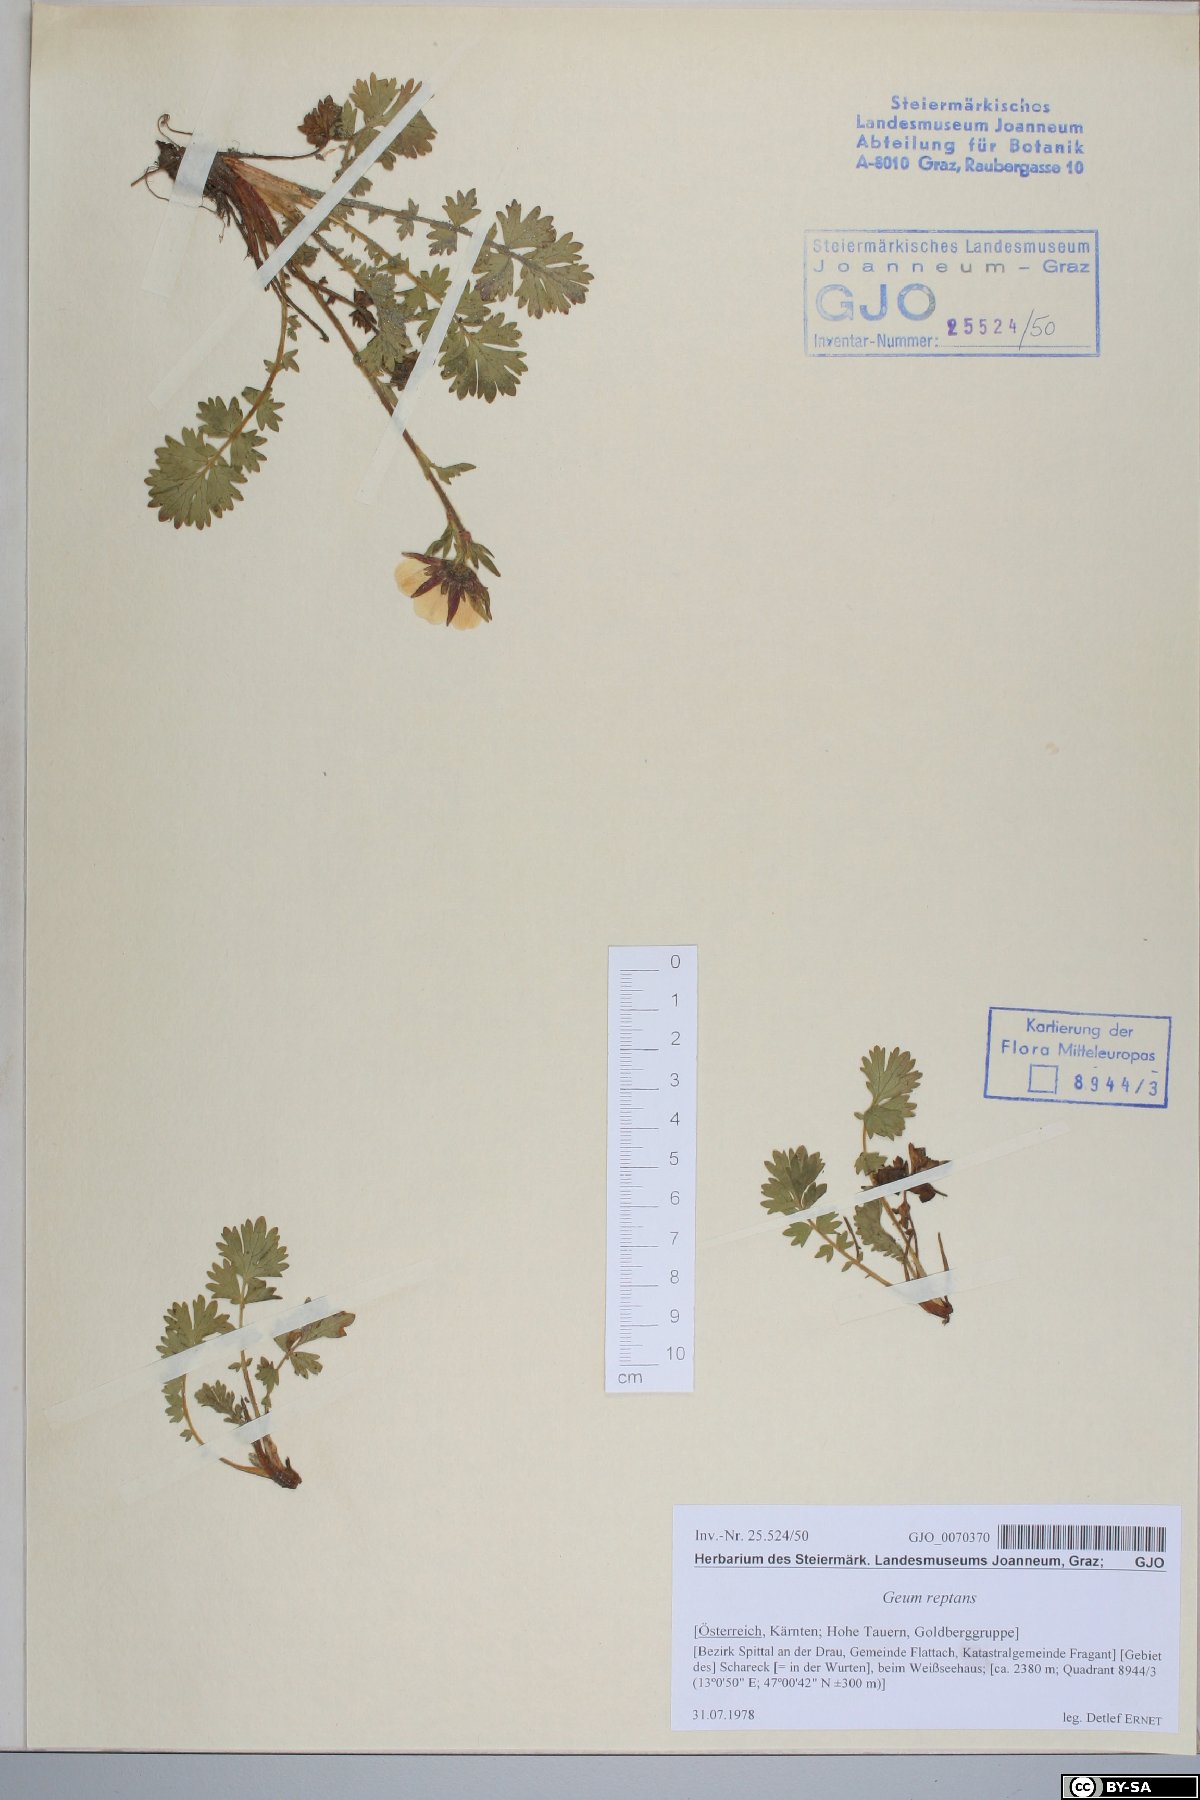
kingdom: Plantae
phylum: Tracheophyta
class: Magnoliopsida
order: Rosales
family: Rosaceae
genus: Geum
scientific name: Geum reptans
